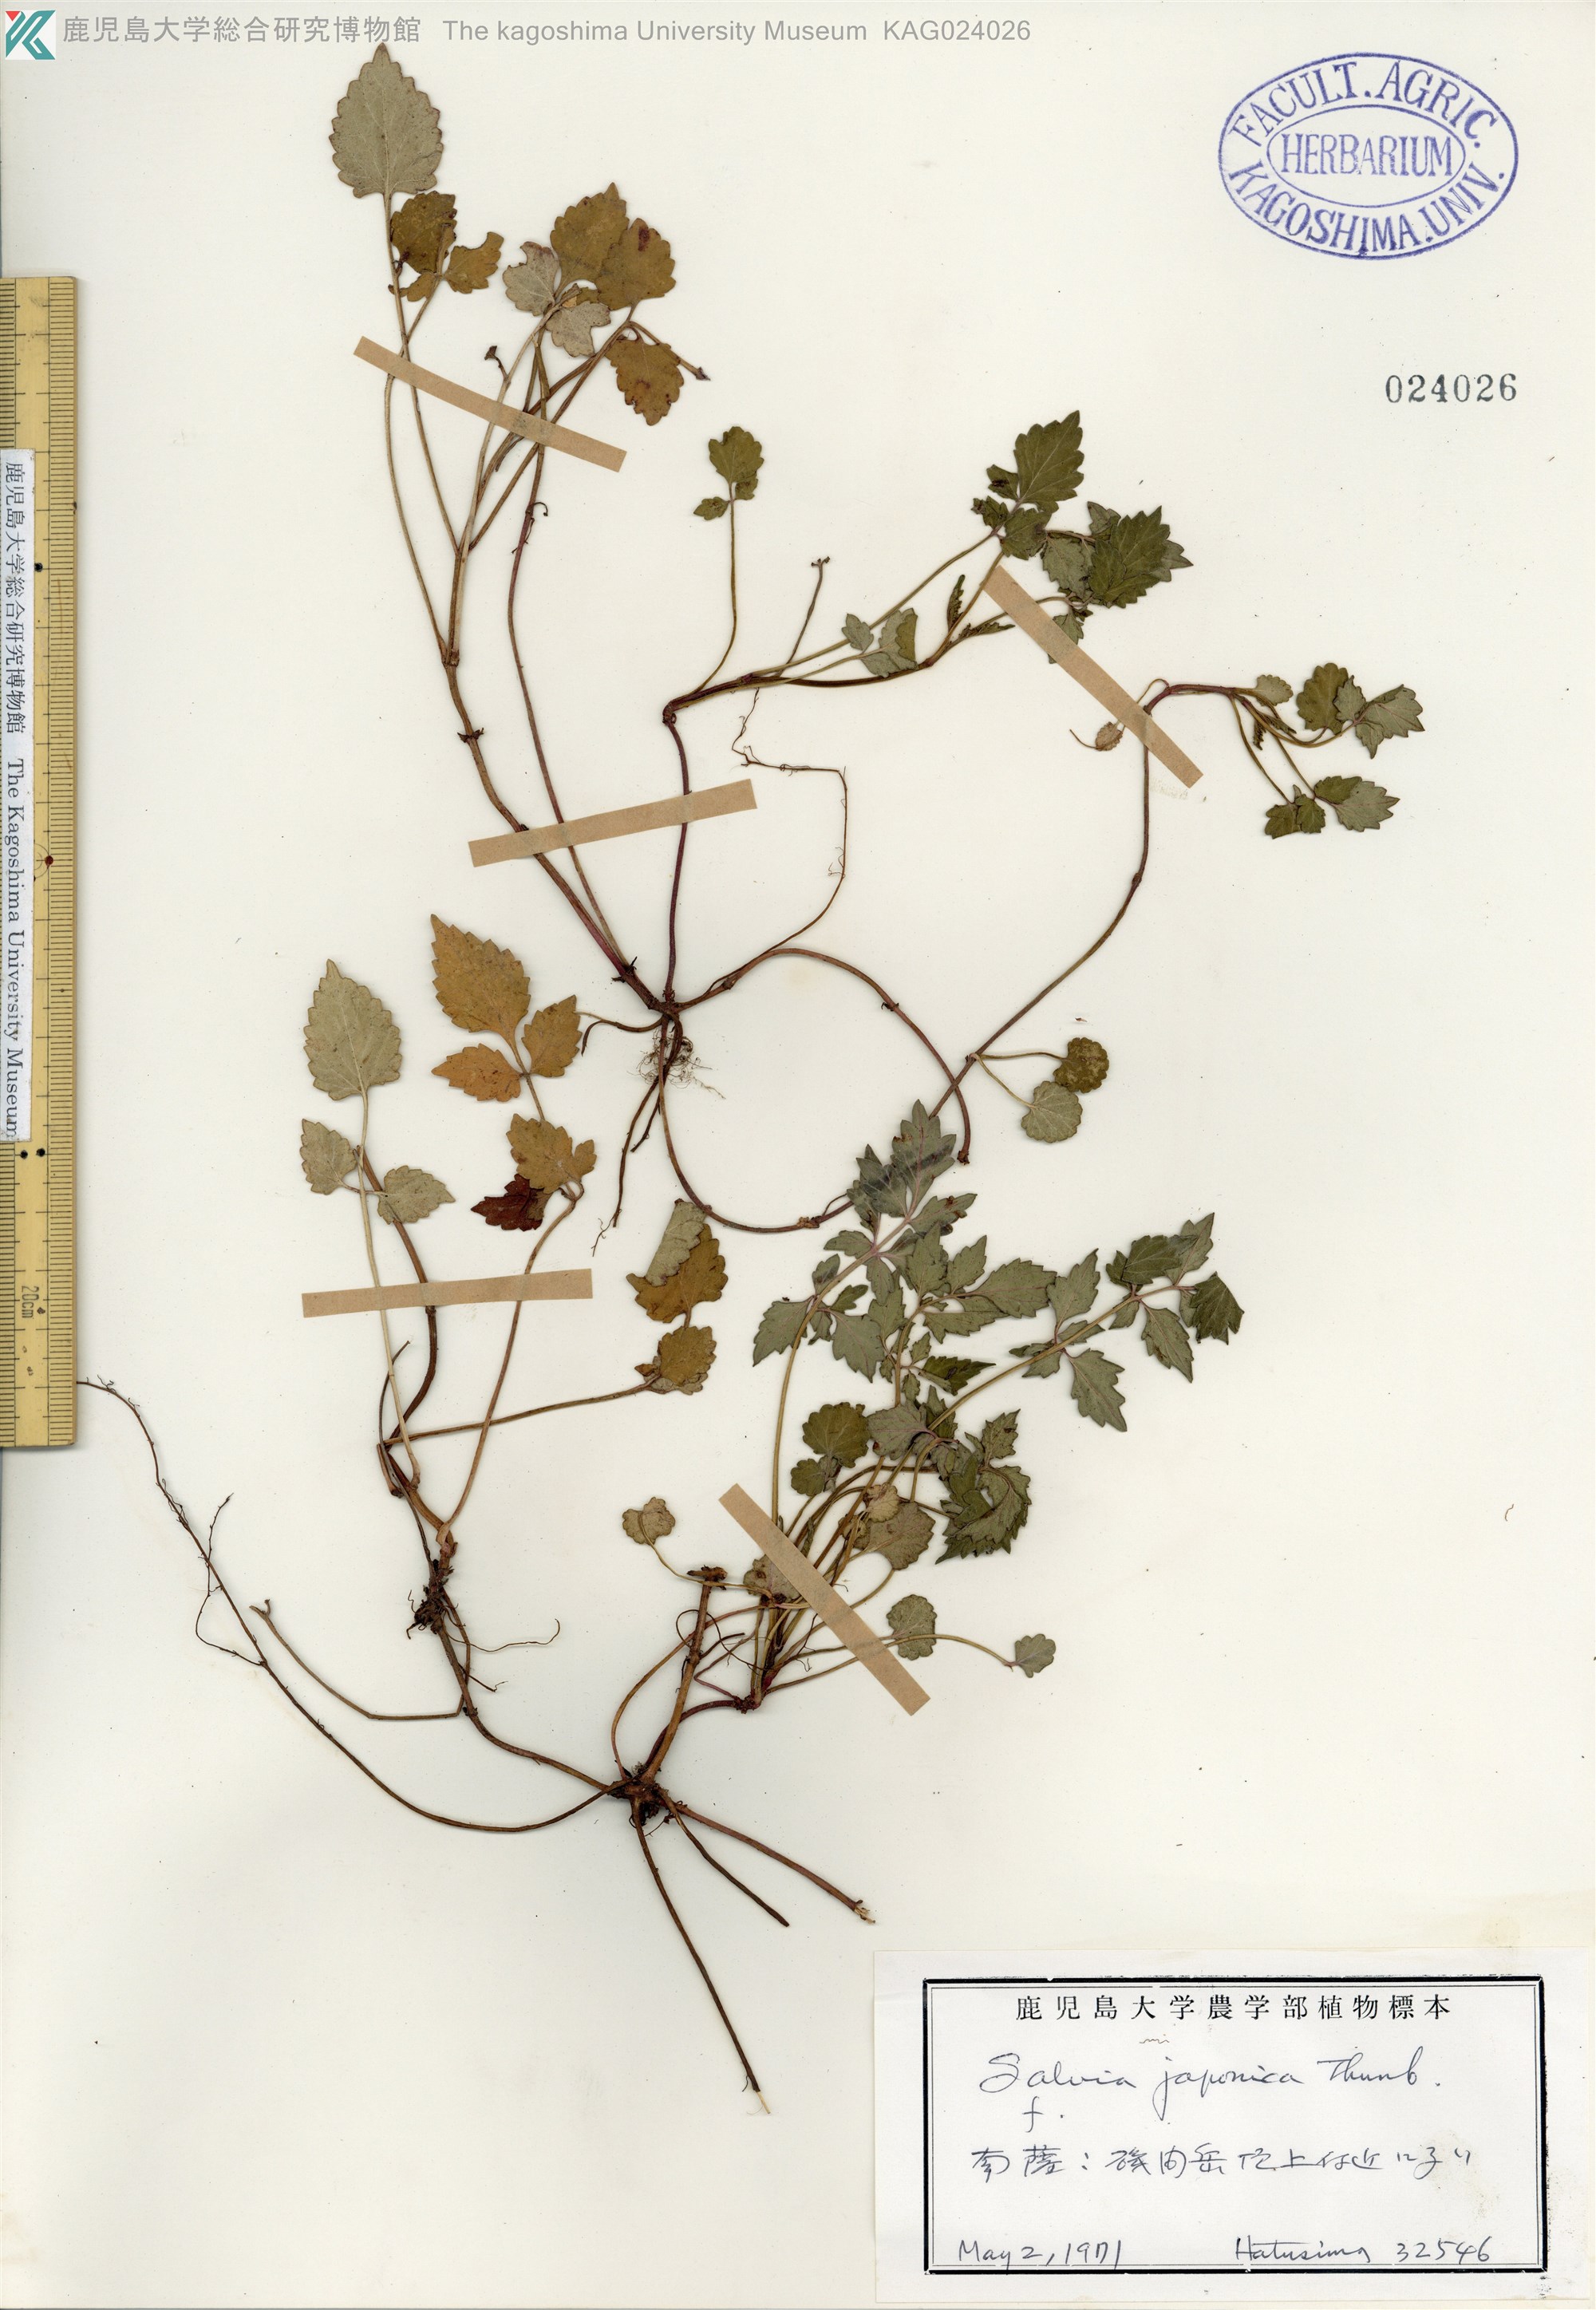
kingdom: Plantae
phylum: Tracheophyta
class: Magnoliopsida
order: Lamiales
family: Lamiaceae
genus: Salvia
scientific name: Salvia japonica
